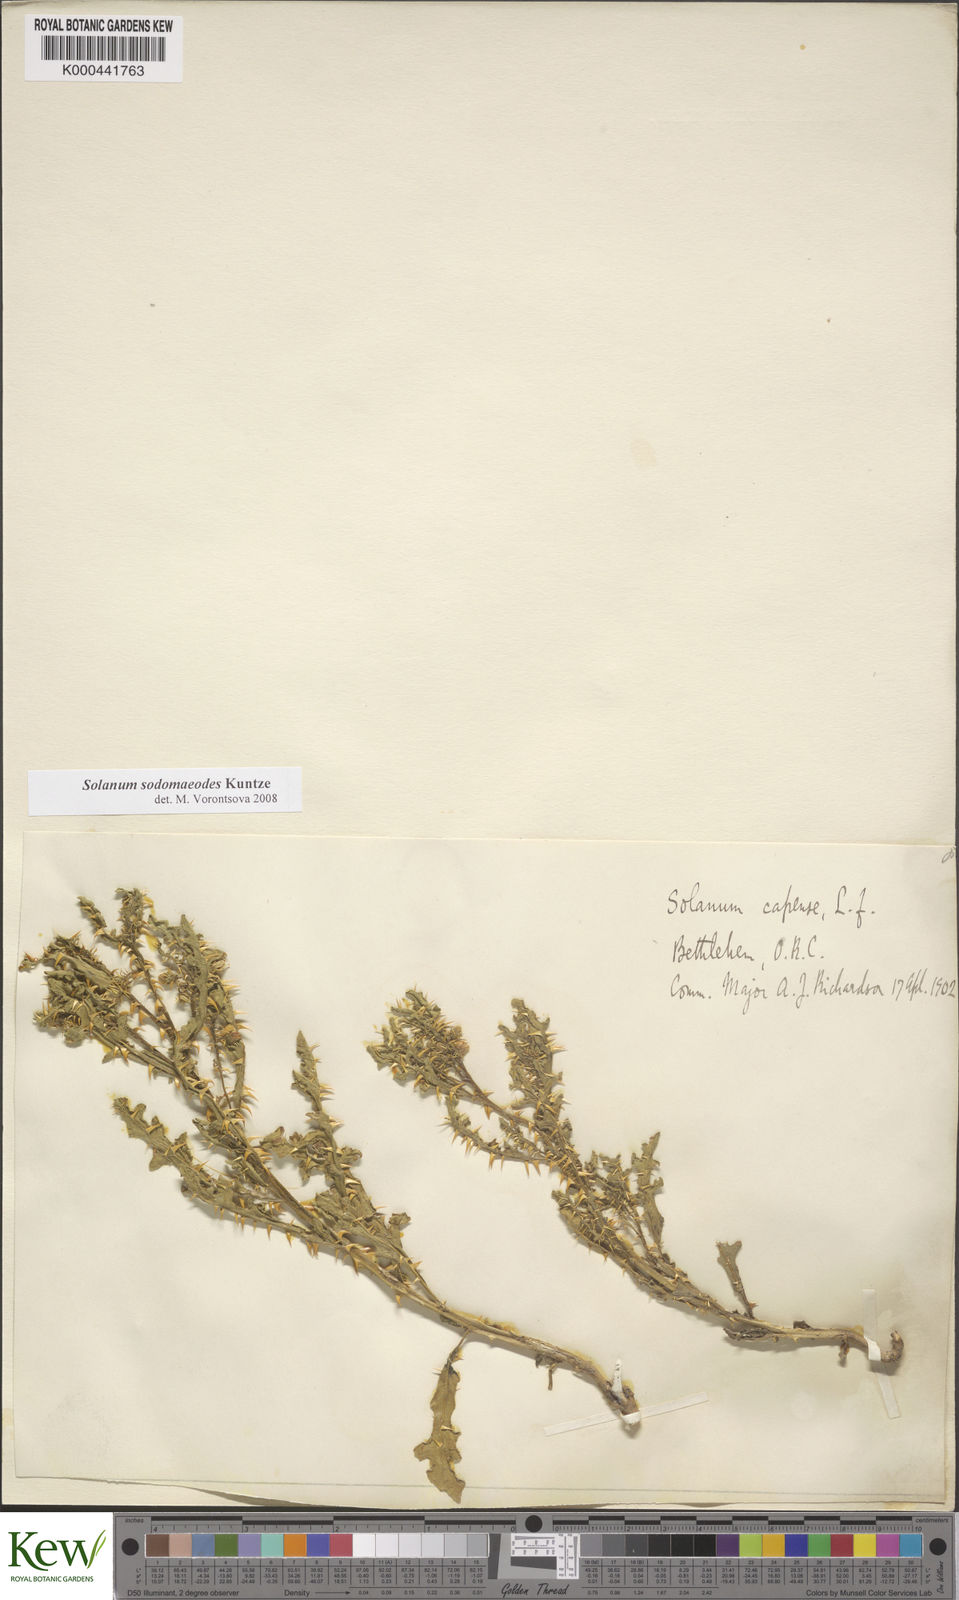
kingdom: Plantae
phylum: Tracheophyta
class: Magnoliopsida
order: Solanales
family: Solanaceae
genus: Solanum
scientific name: Solanum
